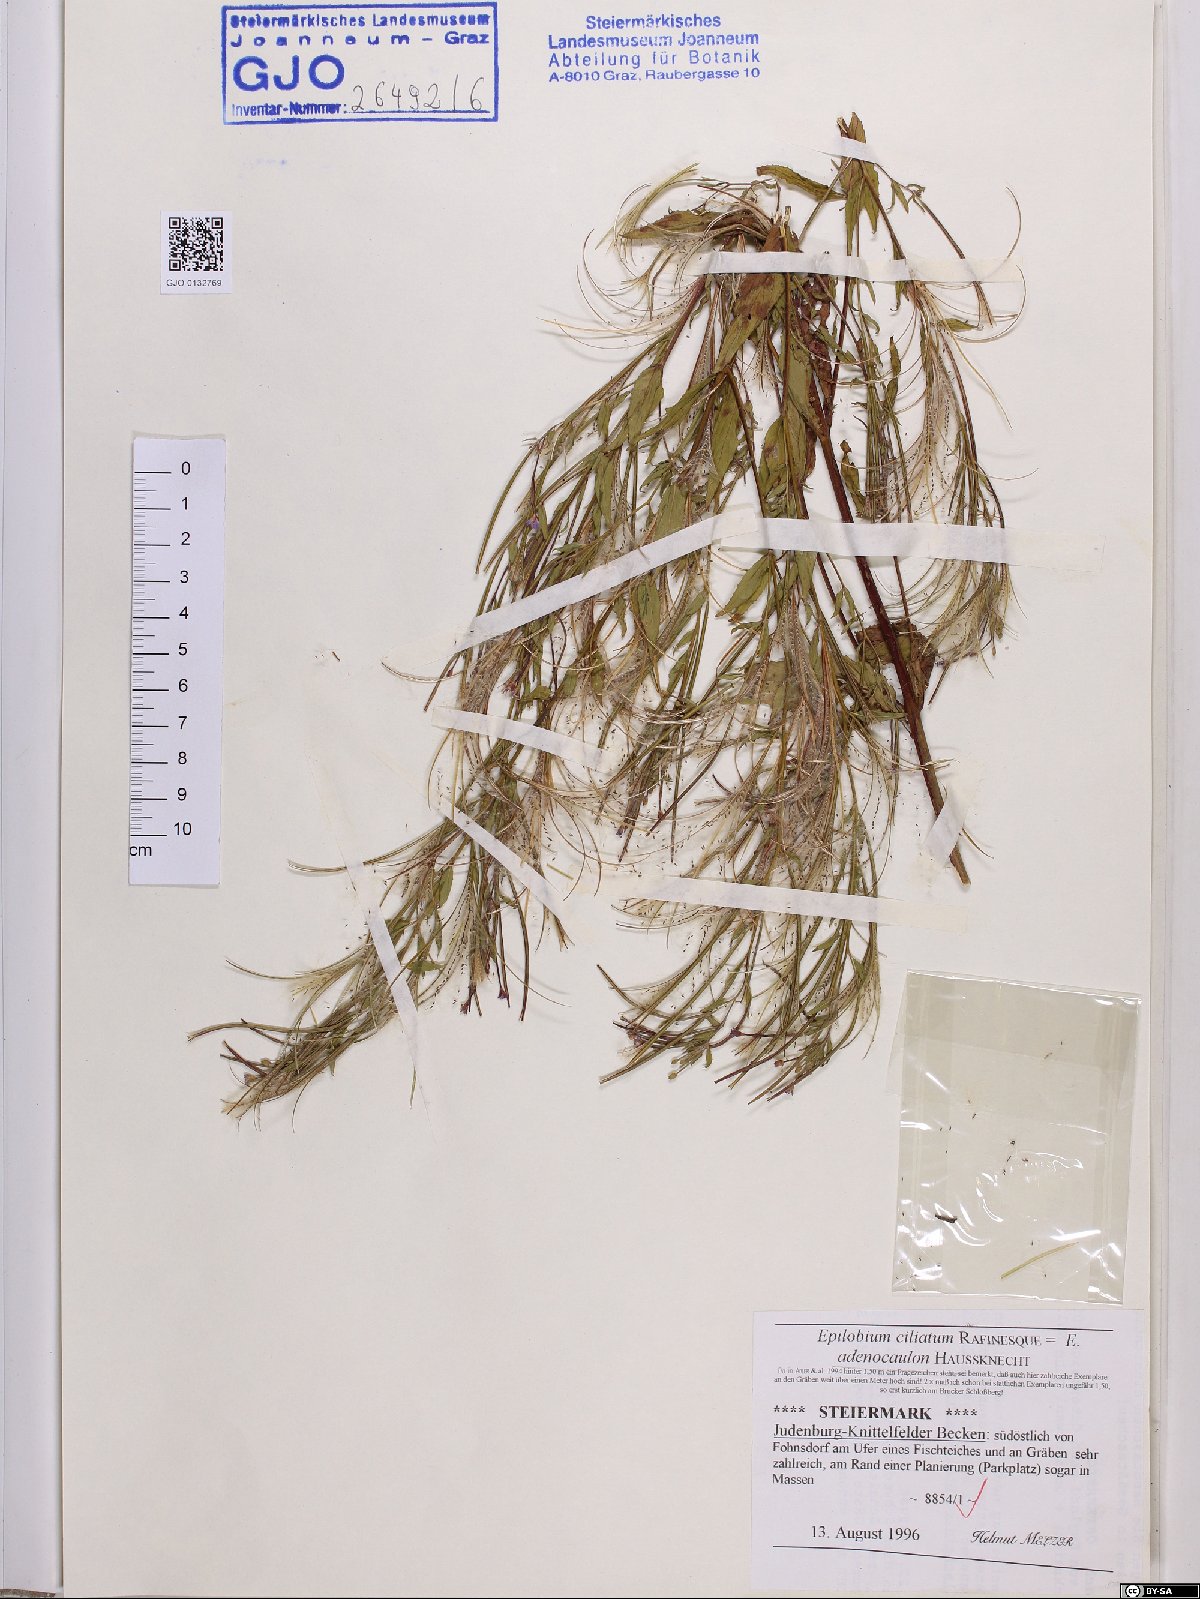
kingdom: Plantae
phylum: Tracheophyta
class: Magnoliopsida
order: Myrtales
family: Onagraceae
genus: Epilobium
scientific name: Epilobium ciliatum
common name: American willowherb
